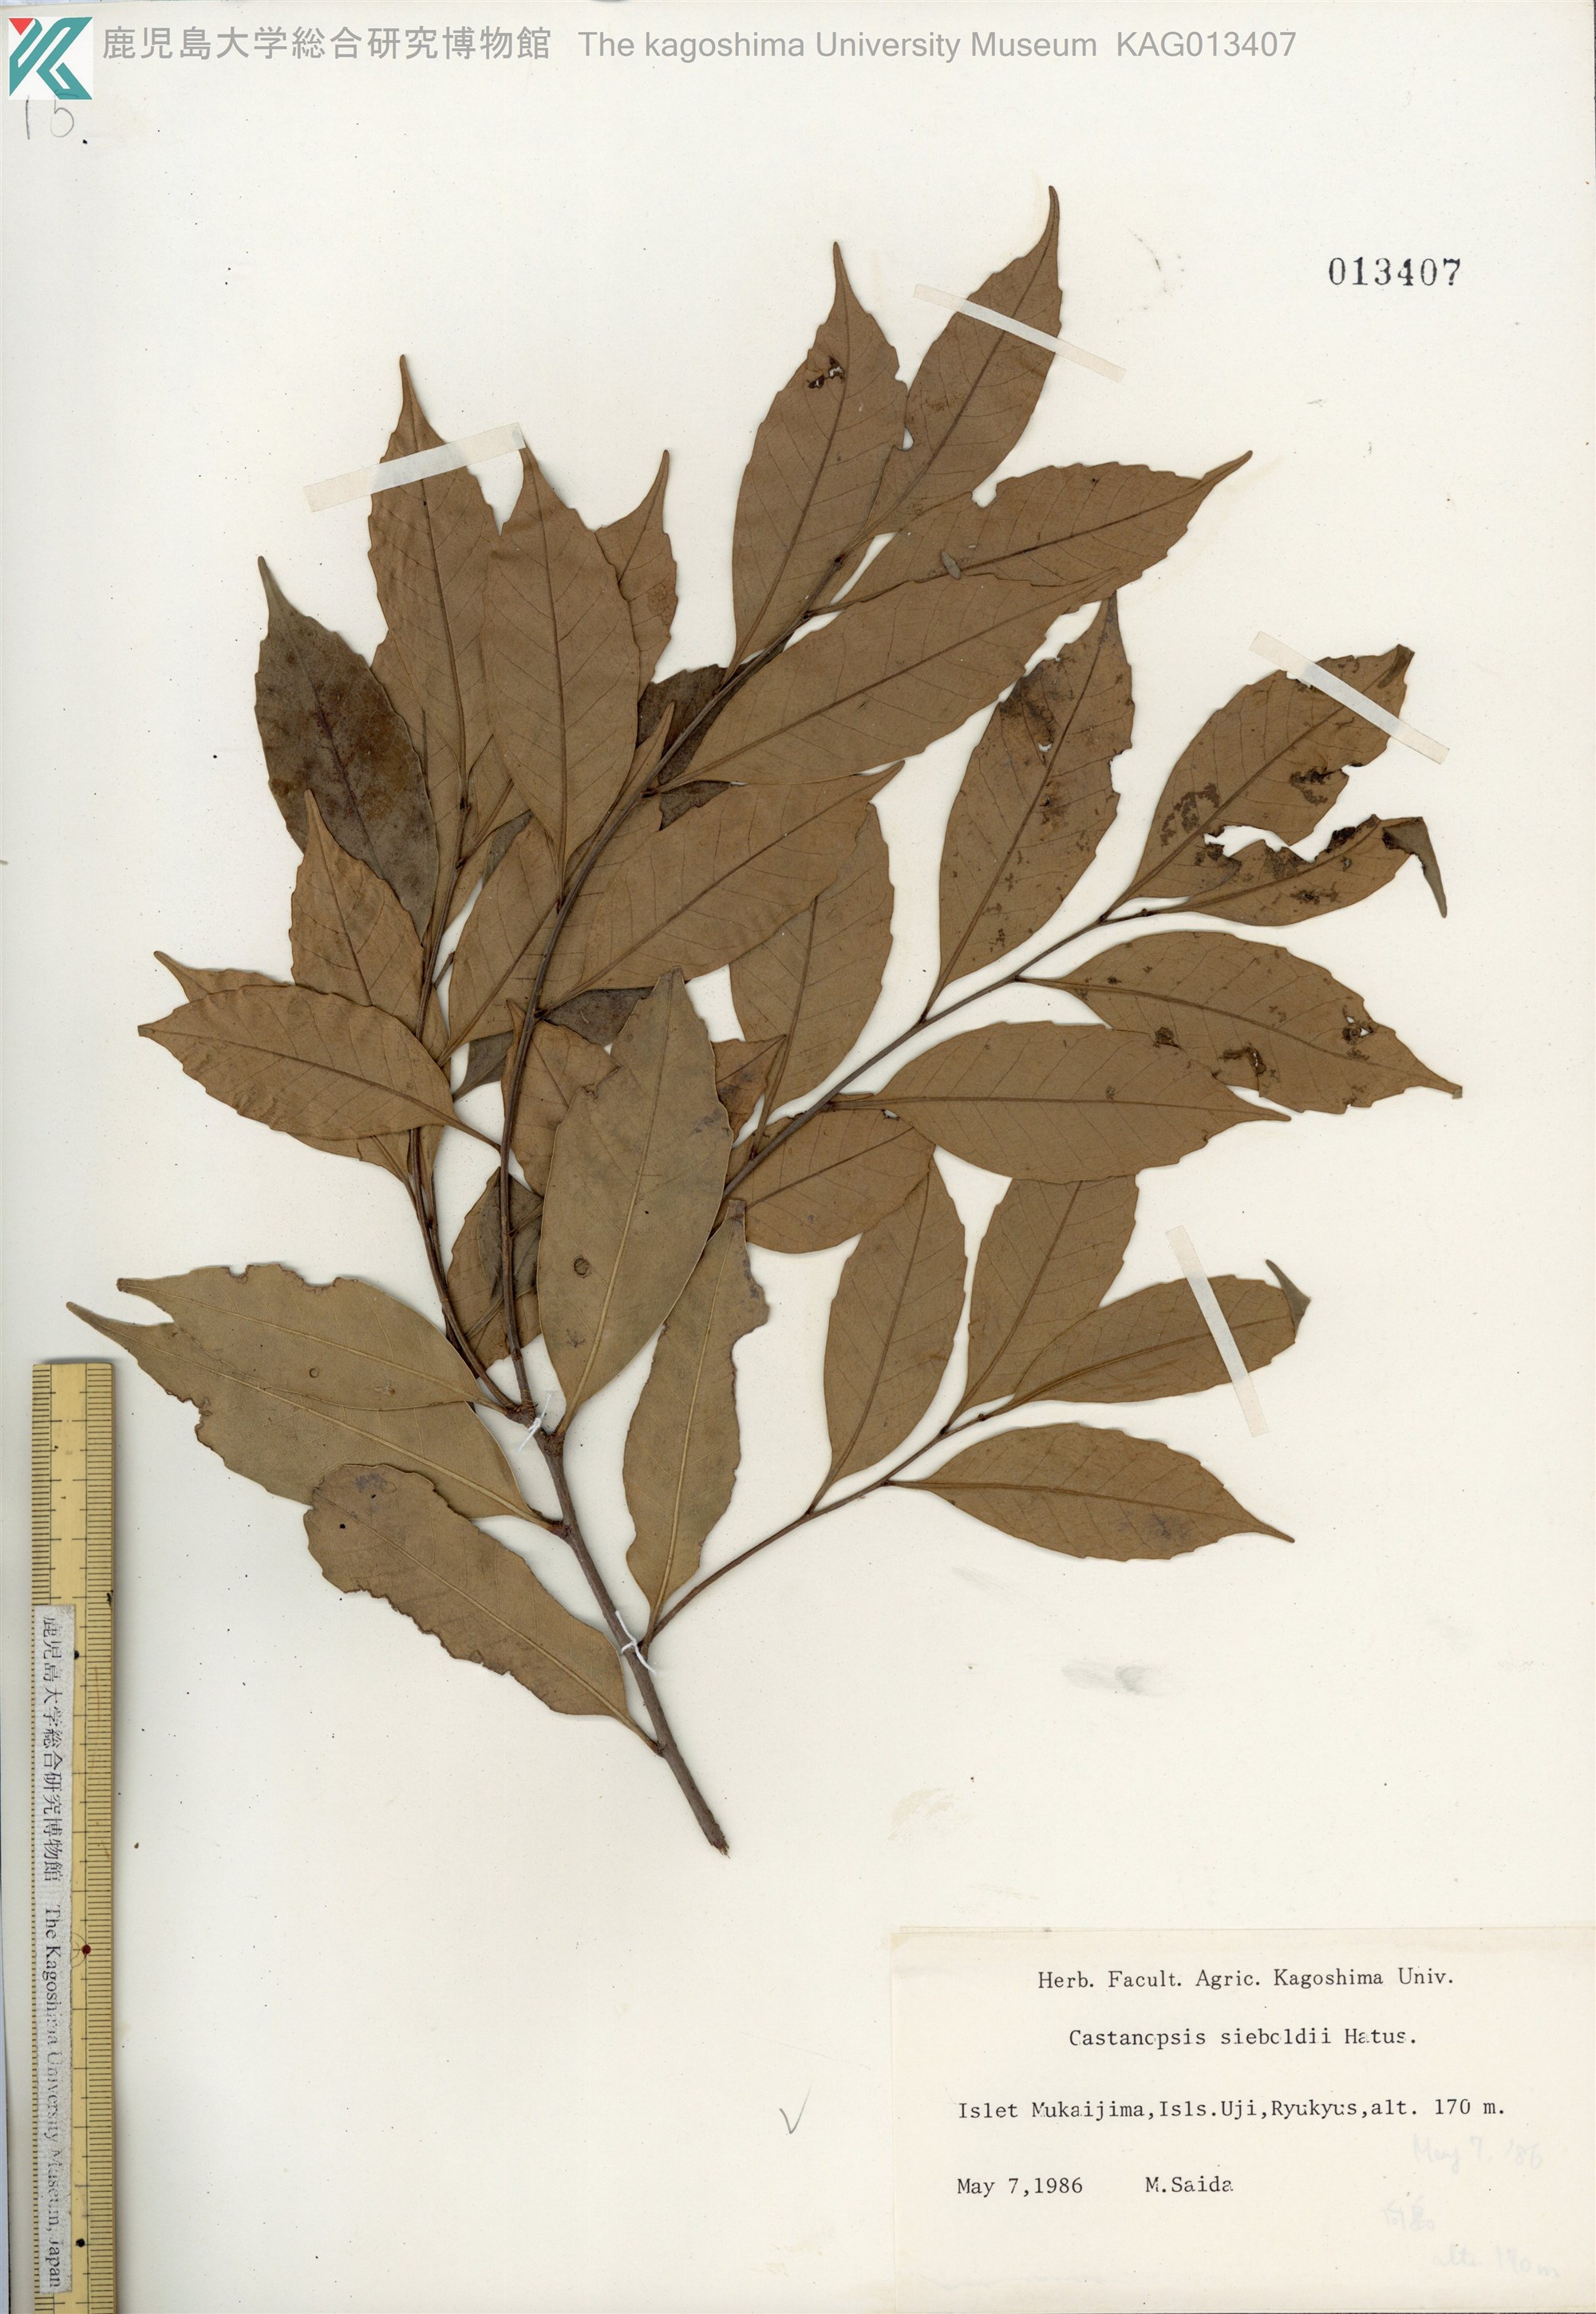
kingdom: Plantae
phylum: Tracheophyta
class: Magnoliopsida
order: Fagales
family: Fagaceae
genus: Castanopsis
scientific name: Castanopsis sieboldii
